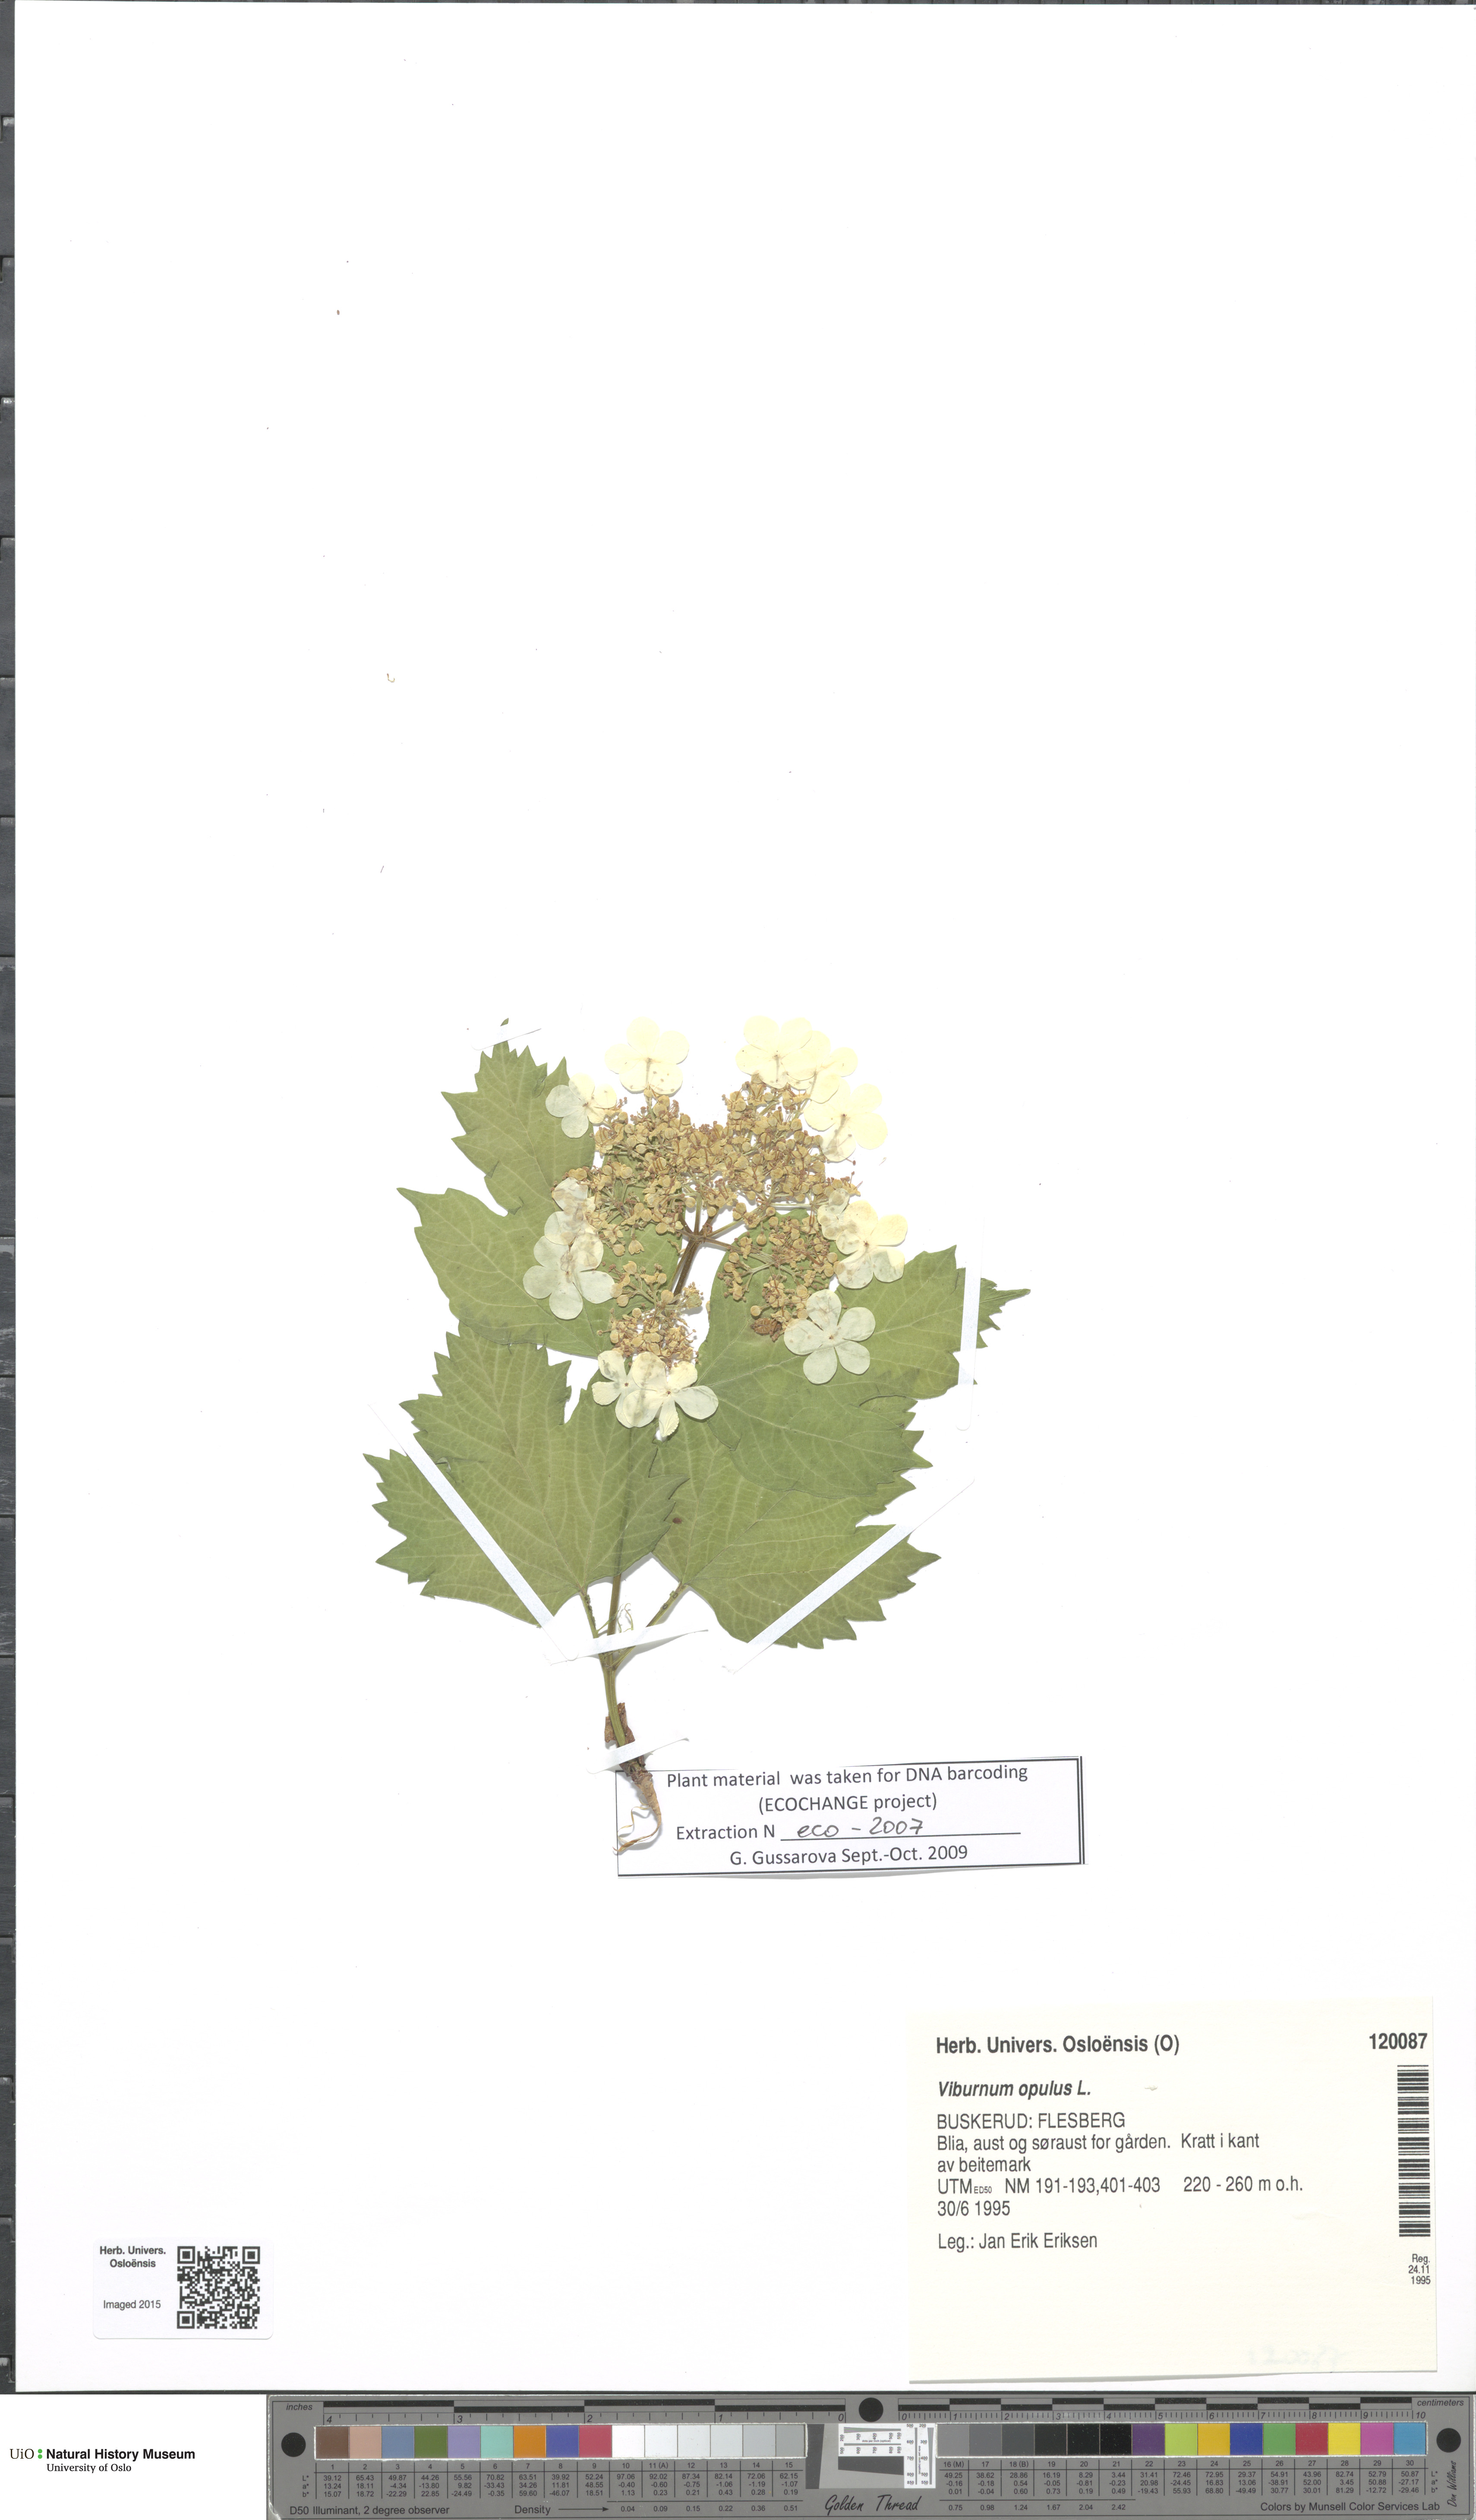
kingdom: Plantae
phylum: Tracheophyta
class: Magnoliopsida
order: Dipsacales
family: Viburnaceae
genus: Viburnum
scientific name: Viburnum opulus
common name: Guelder-rose
